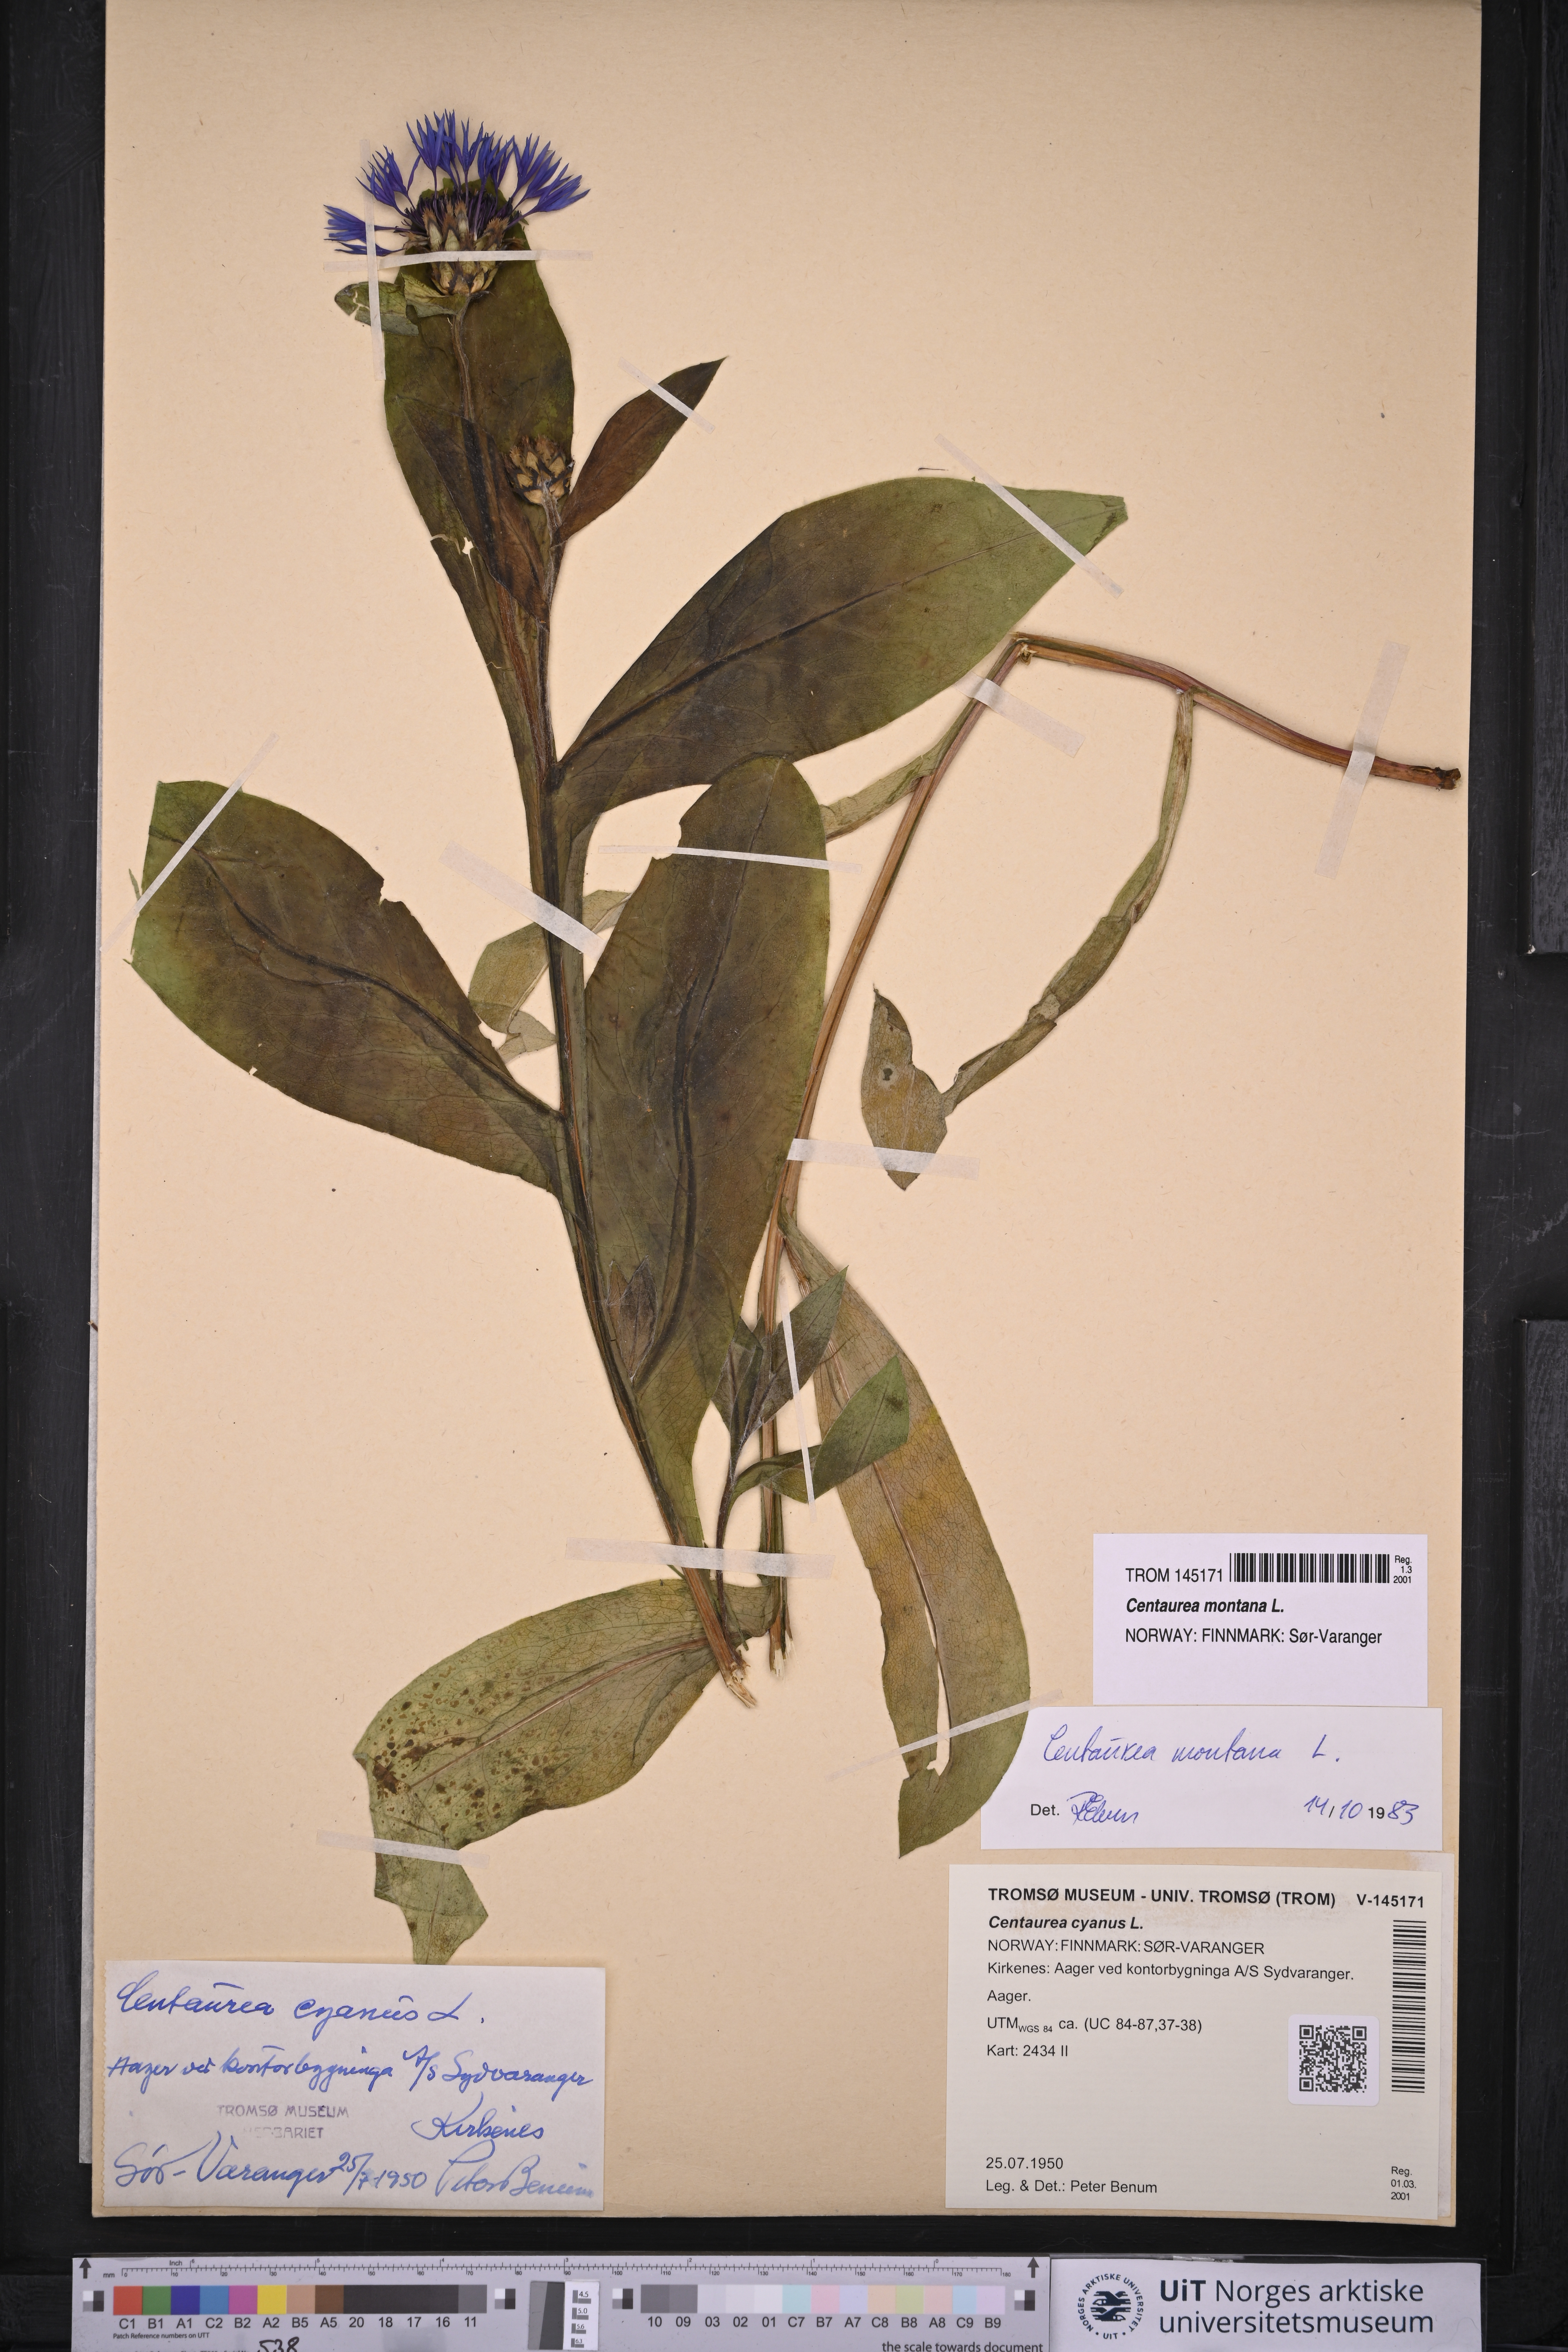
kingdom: Plantae
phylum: Tracheophyta
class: Magnoliopsida
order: Asterales
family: Asteraceae
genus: Centaurea
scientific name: Centaurea montana
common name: Perennial cornflower
